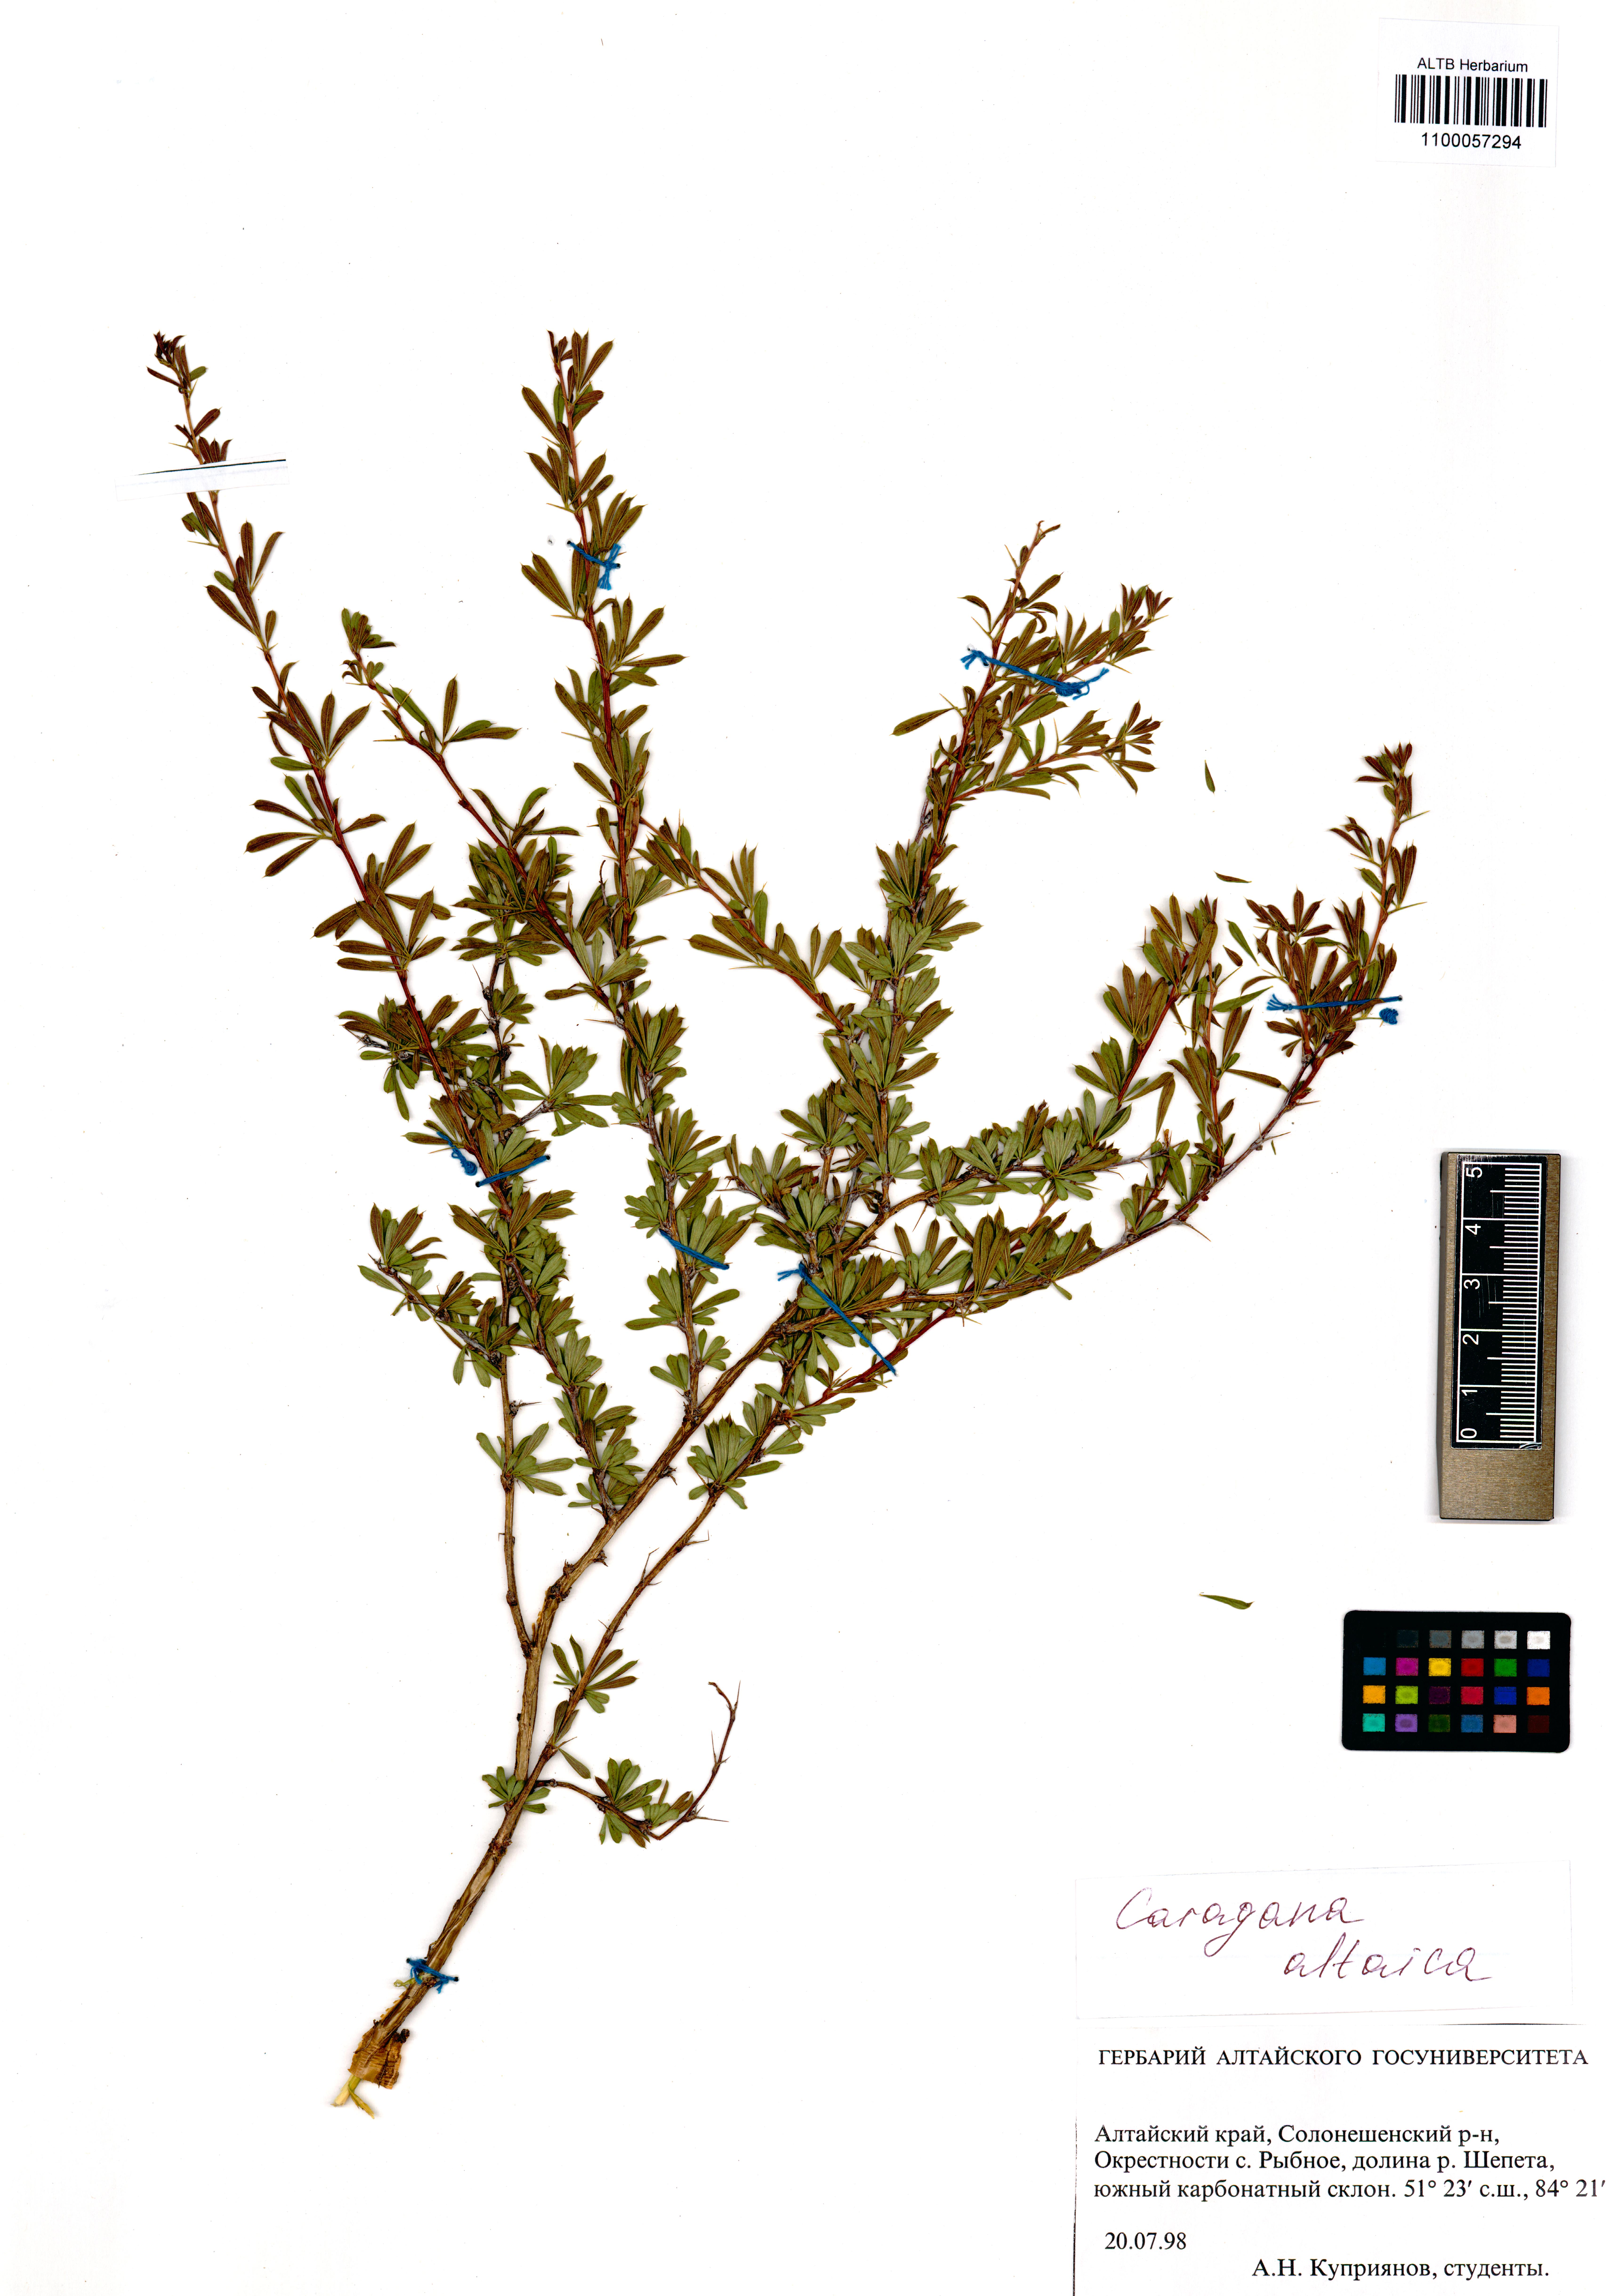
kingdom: Plantae
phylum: Tracheophyta
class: Magnoliopsida
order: Fabales
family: Fabaceae
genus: Caragana
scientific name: Caragana pygmaea
